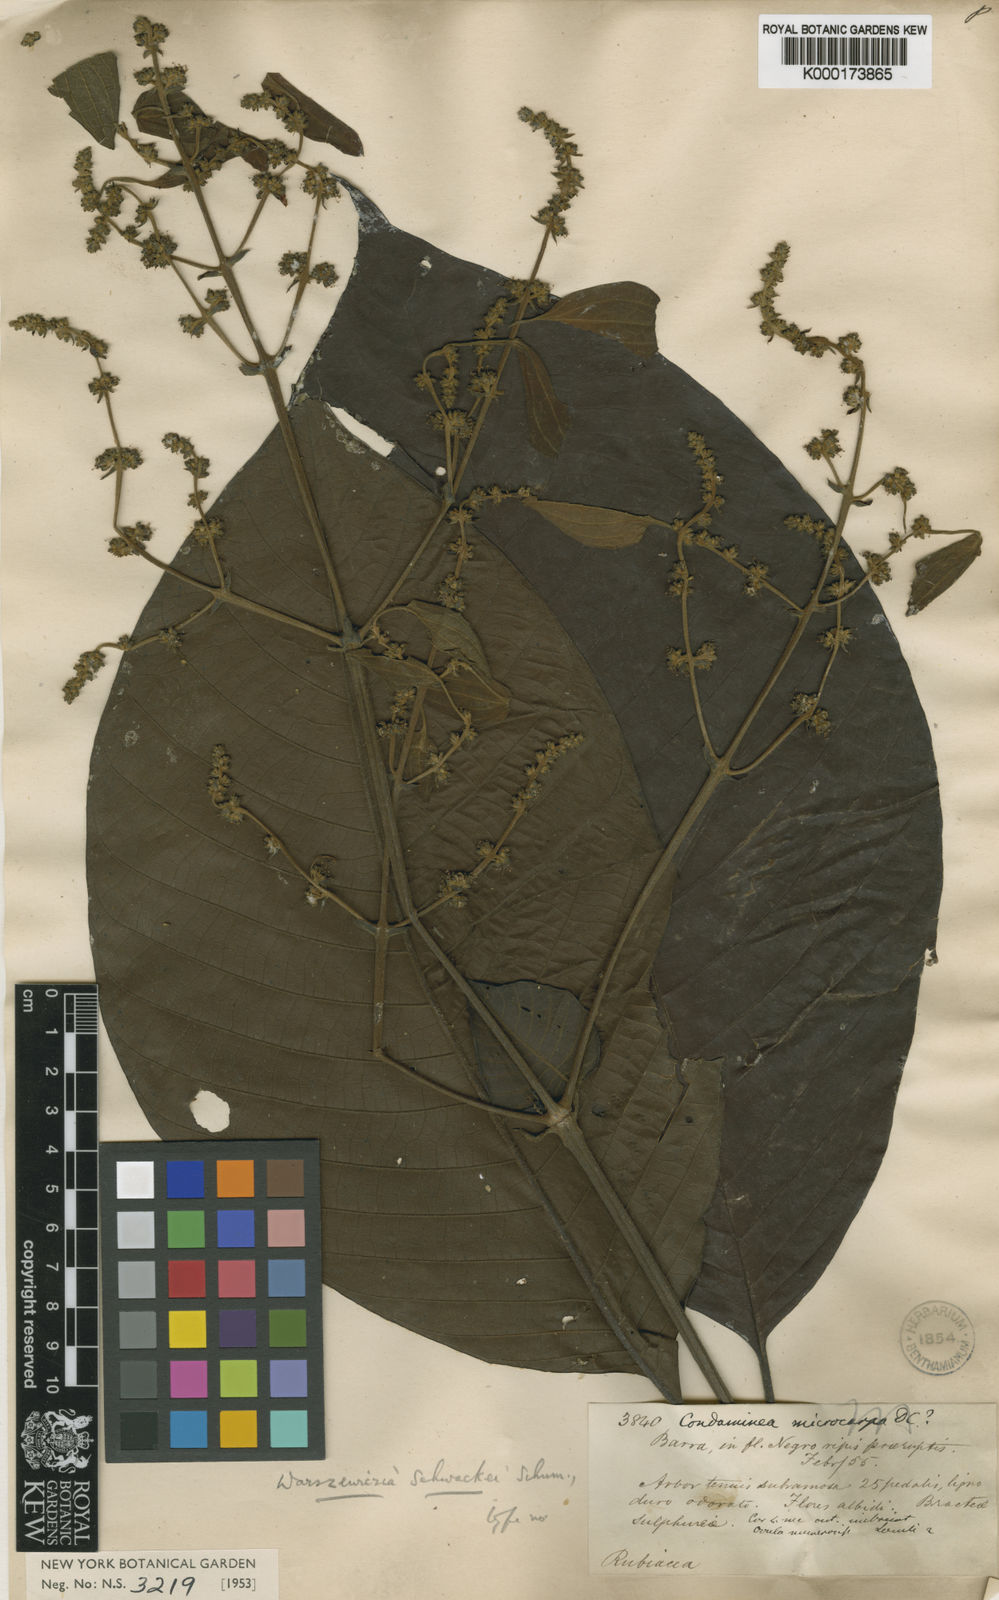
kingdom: Plantae
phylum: Tracheophyta
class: Magnoliopsida
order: Gentianales
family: Rubiaceae
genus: Warszewiczia
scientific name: Warszewiczia schwackei
